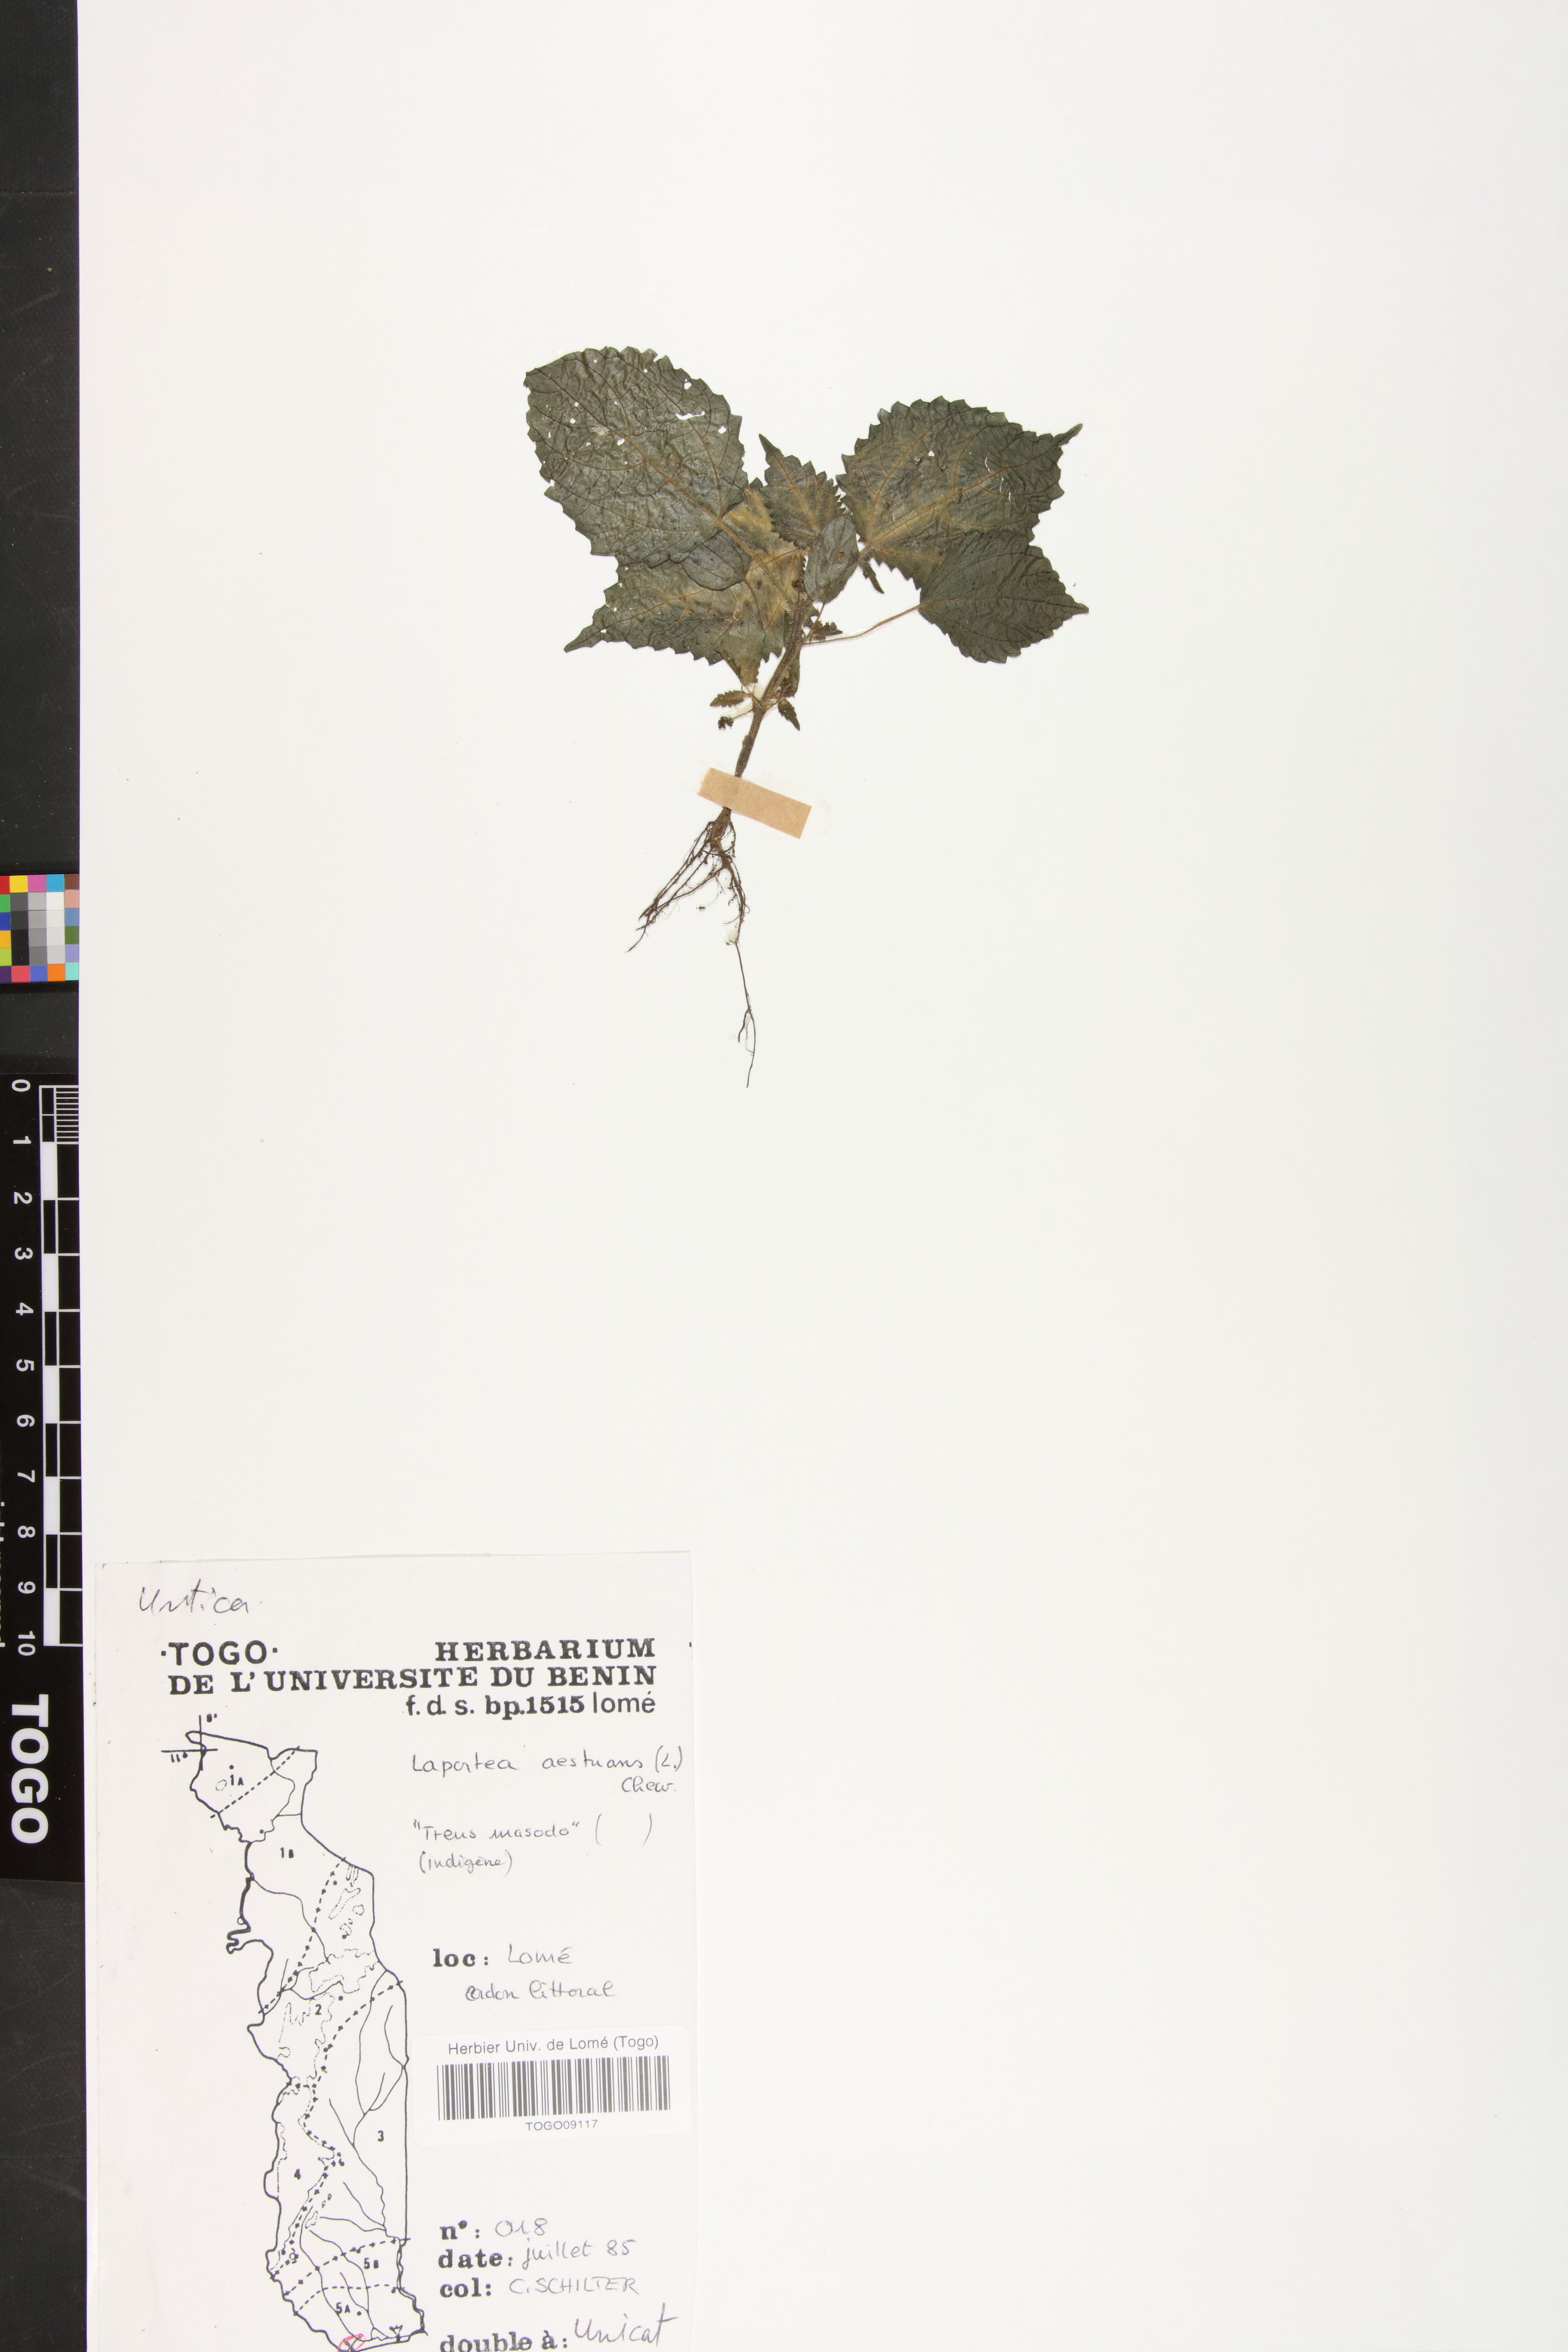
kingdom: Plantae
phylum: Tracheophyta
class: Magnoliopsida
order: Rosales
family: Urticaceae
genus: Laportea
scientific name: Laportea aestuans
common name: West indian woodnettle
